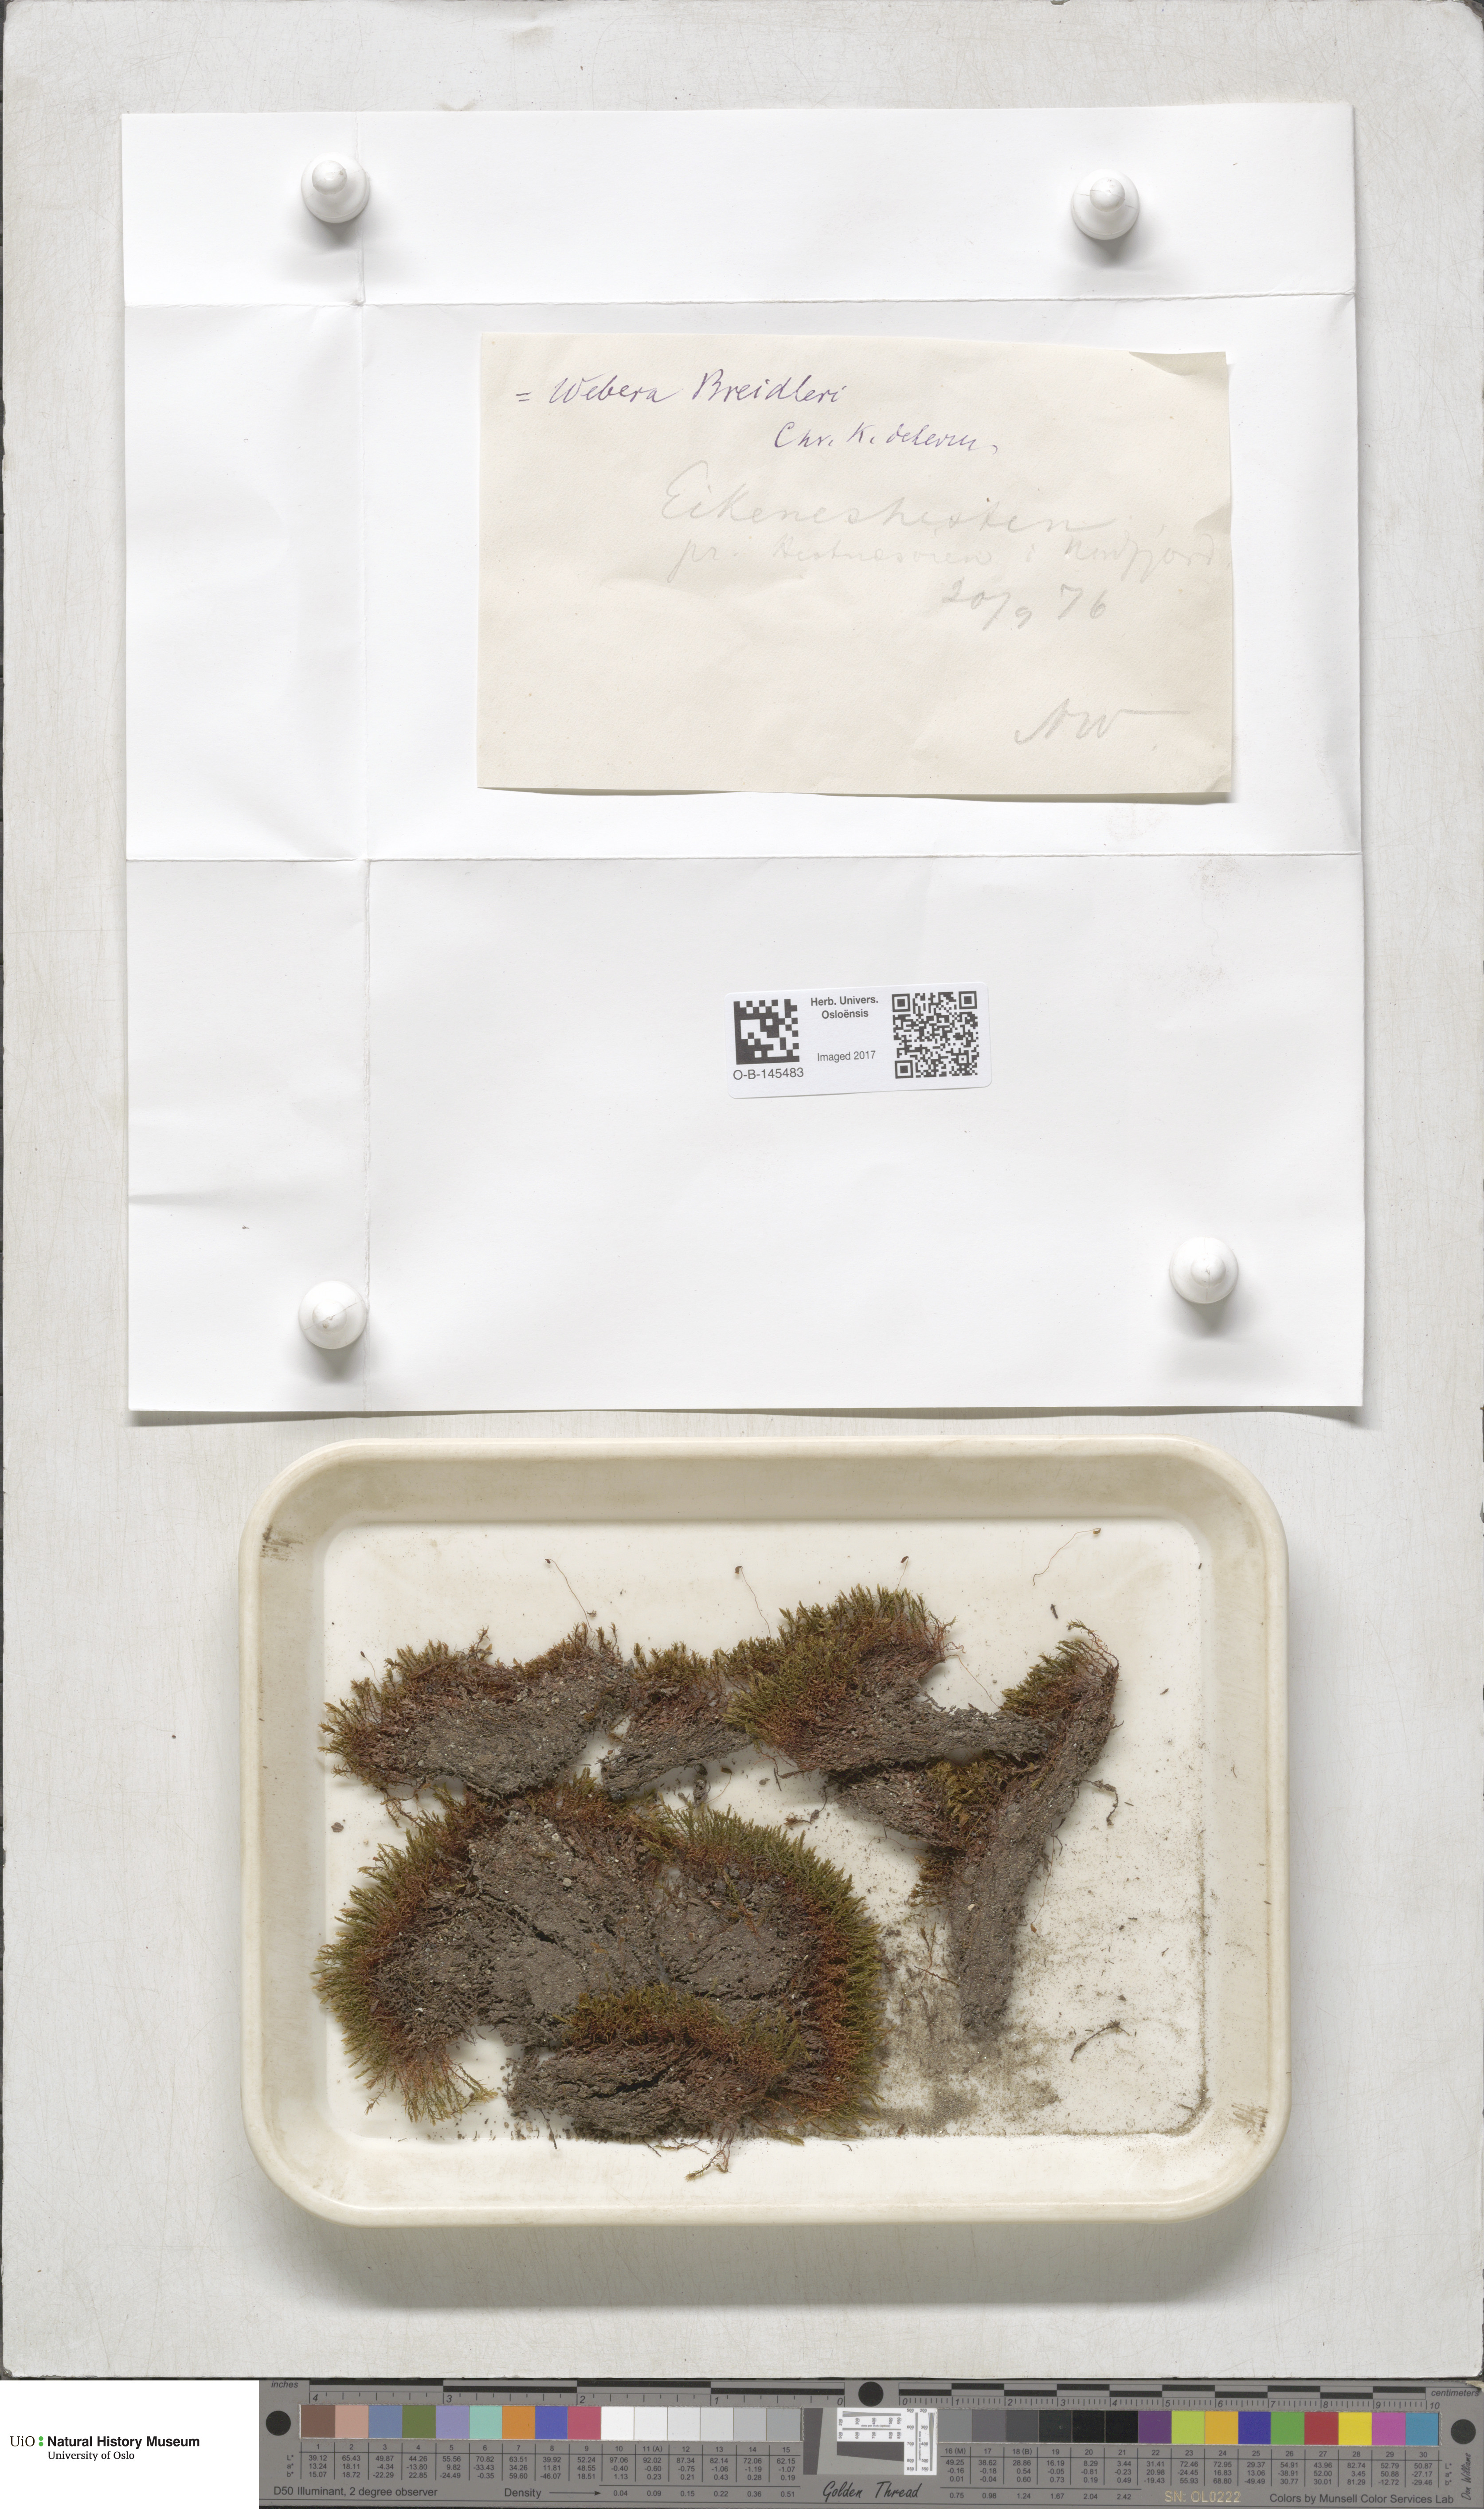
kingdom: Plantae
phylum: Bryophyta
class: Bryopsida
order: Bryales
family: Mniaceae
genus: Pohlia
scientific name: Pohlia ludwigii
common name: Ludwig's thread-moss
